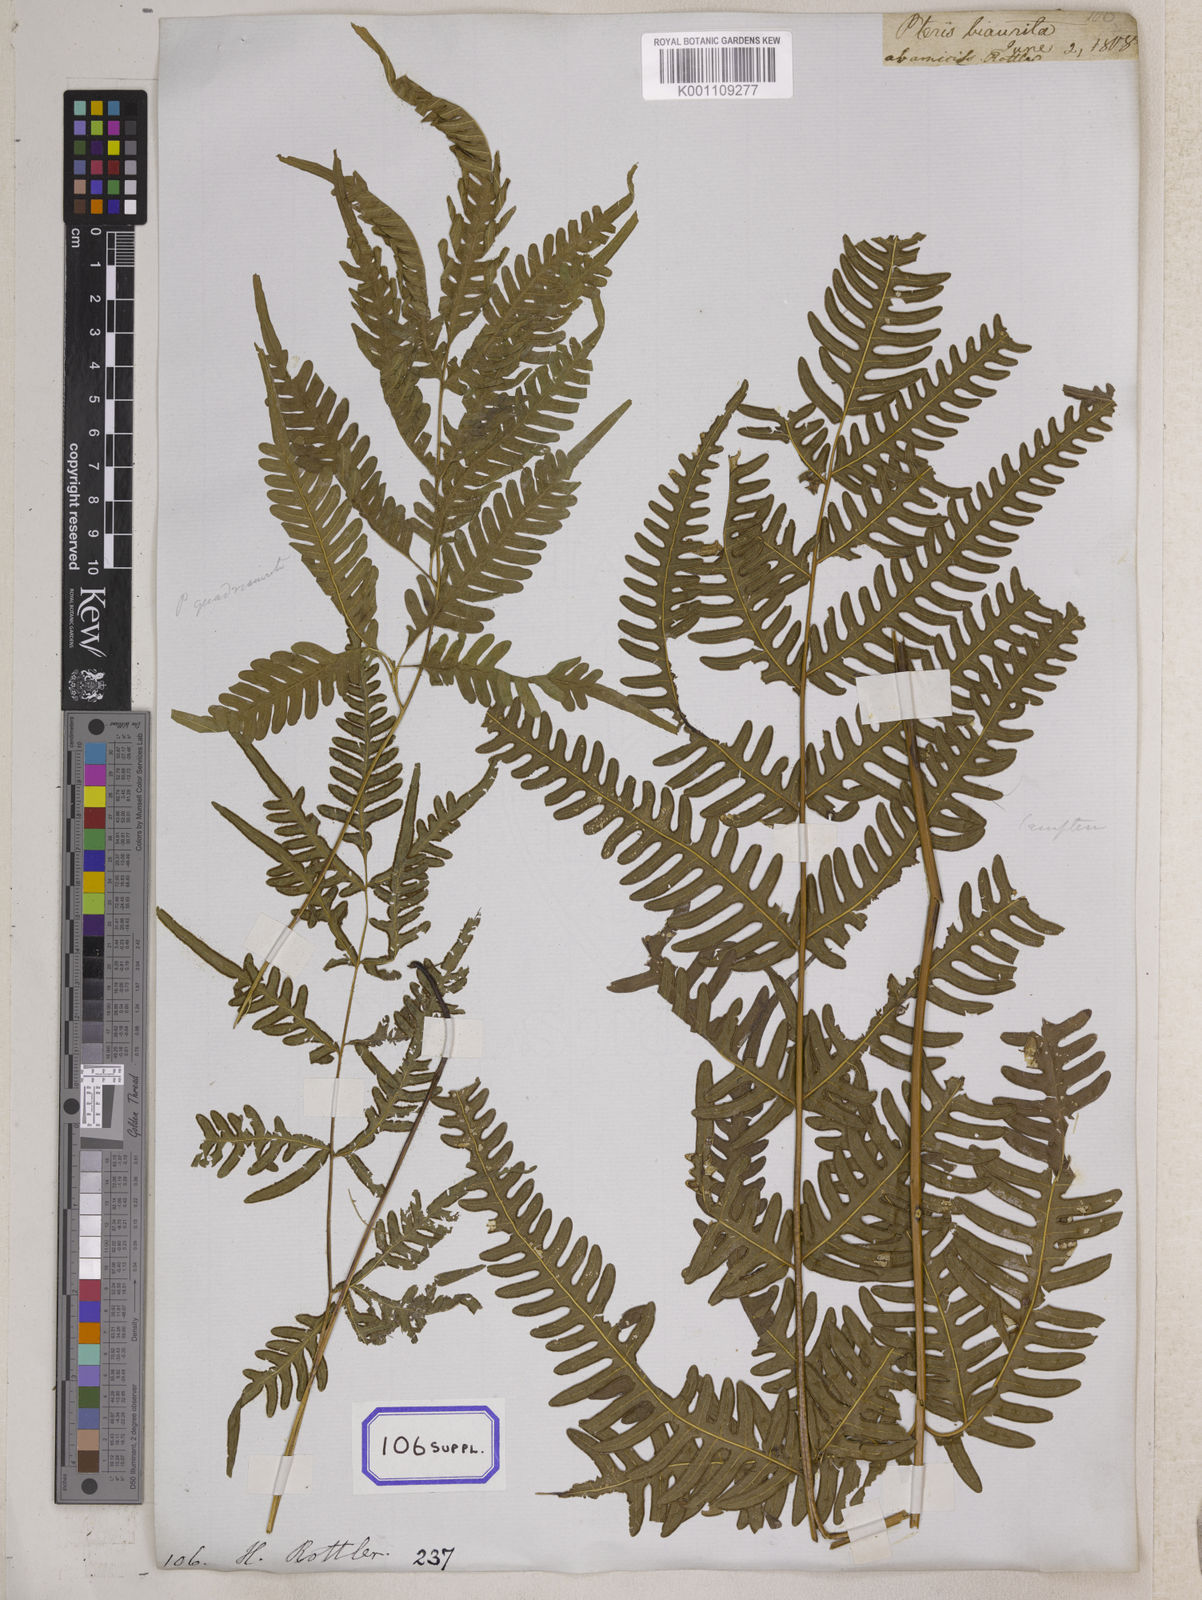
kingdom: Plantae
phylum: Tracheophyta
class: Polypodiopsida
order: Polypodiales
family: Pteridaceae
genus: Pteris
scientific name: Pteris linearis
